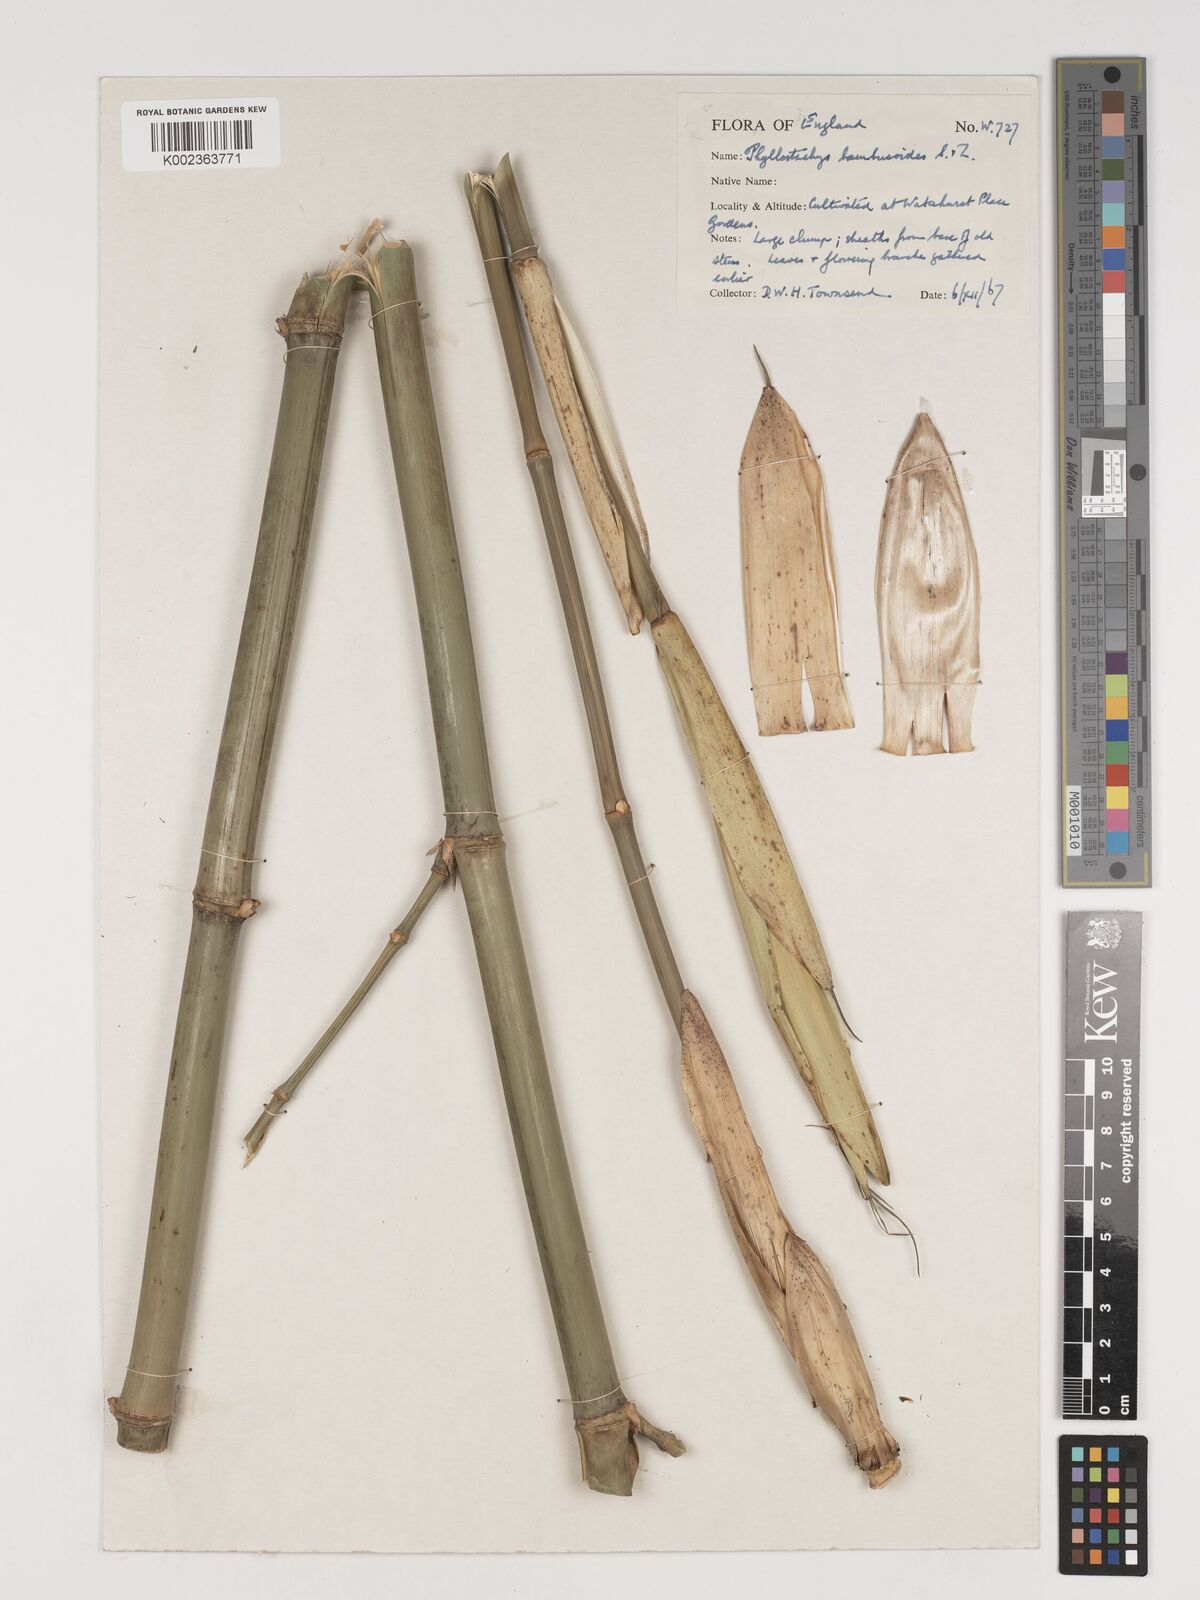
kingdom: Plantae
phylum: Tracheophyta
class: Liliopsida
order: Poales
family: Poaceae
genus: Phyllostachys
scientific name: Phyllostachys reticulata
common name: Bamboo
